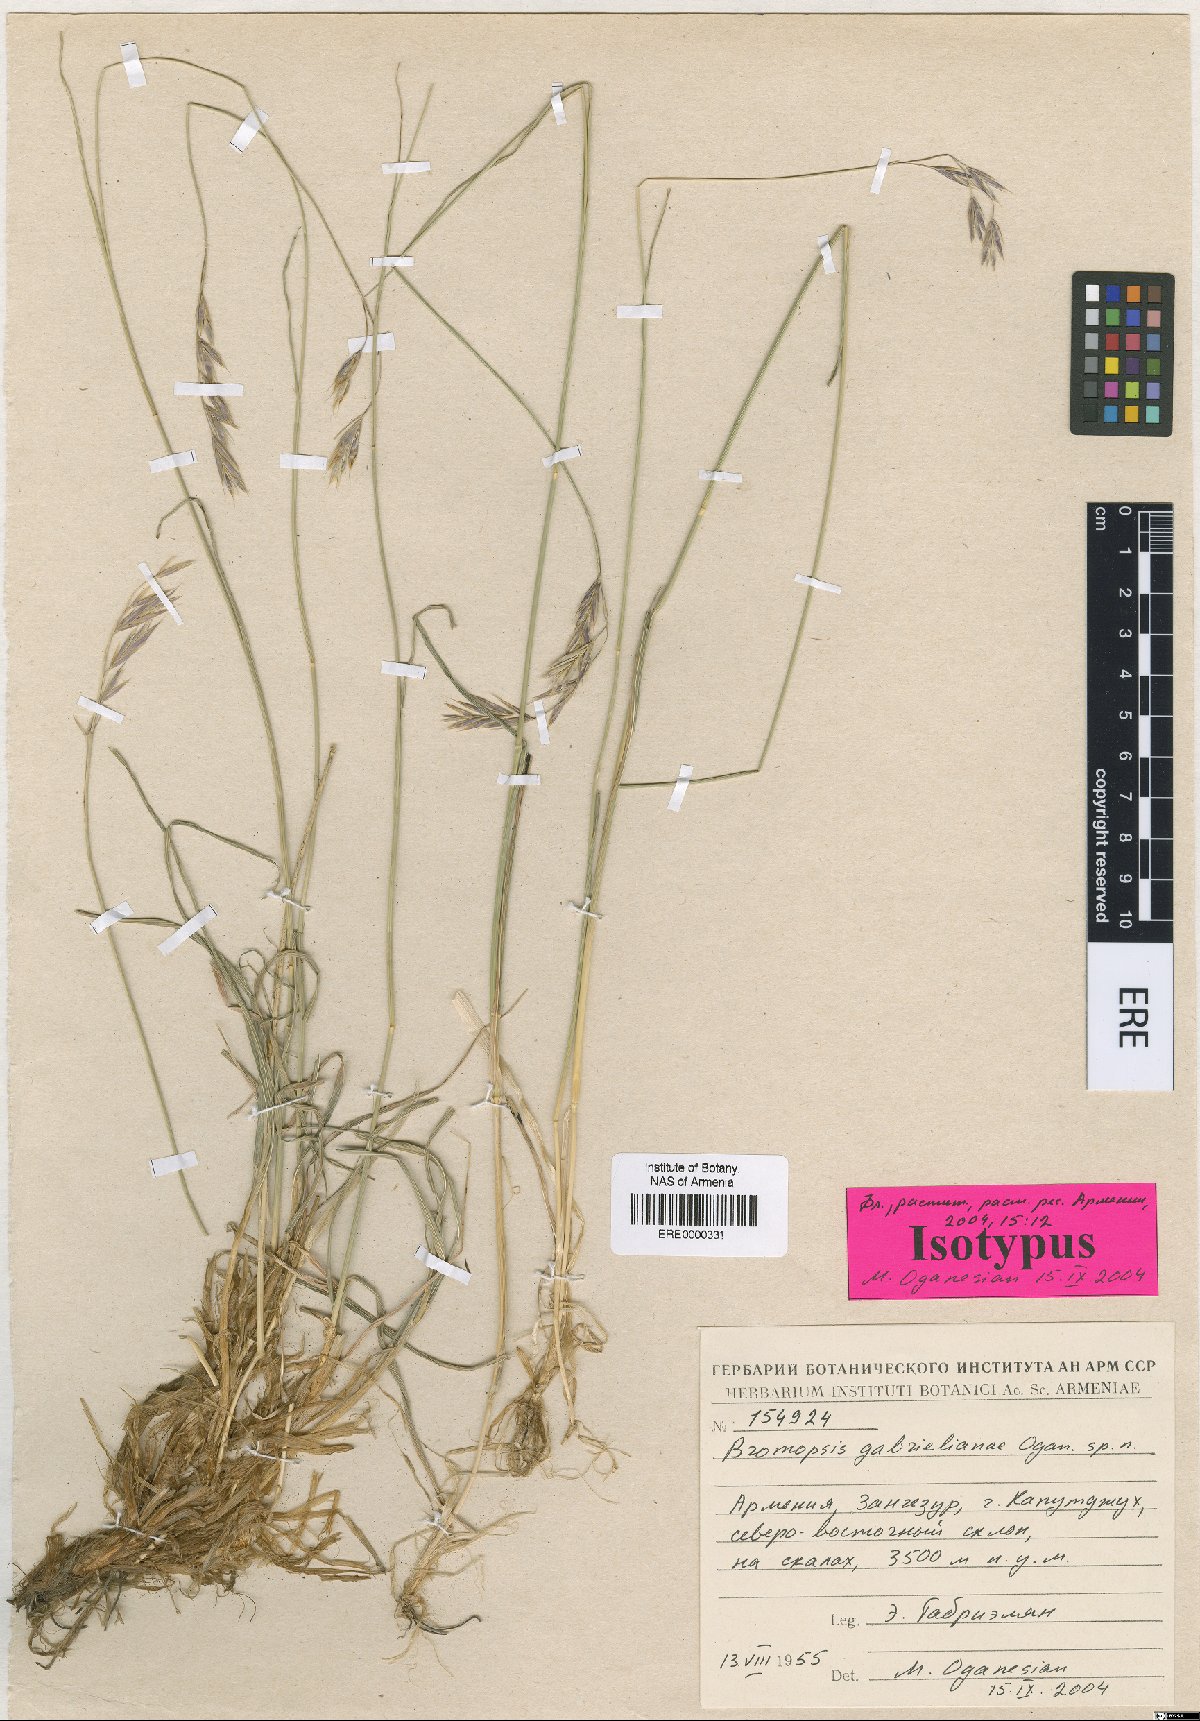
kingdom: Plantae
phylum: Tracheophyta
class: Liliopsida
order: Poales
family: Poaceae
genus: Bromus
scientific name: Bromus tomentosus
